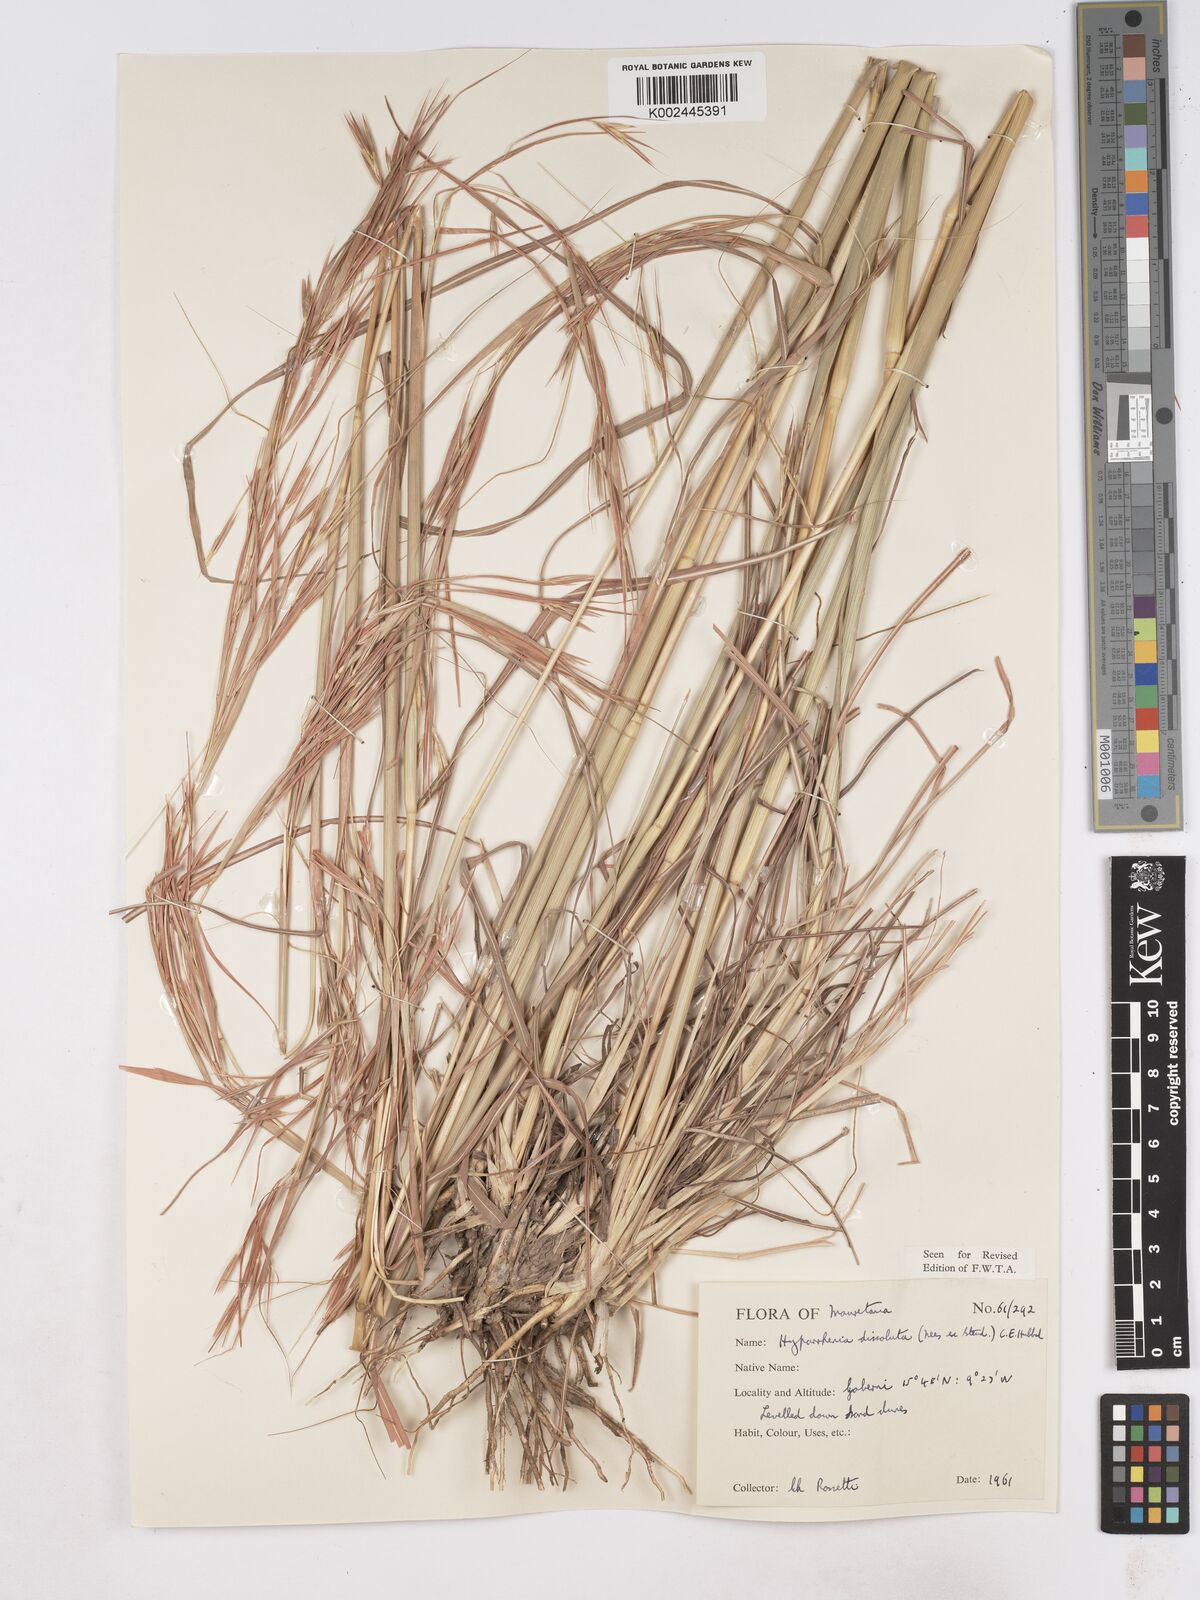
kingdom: Plantae
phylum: Tracheophyta
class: Liliopsida
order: Poales
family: Poaceae
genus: Hyperthelia
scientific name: Hyperthelia dissoluta
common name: Yellow thatching grass
